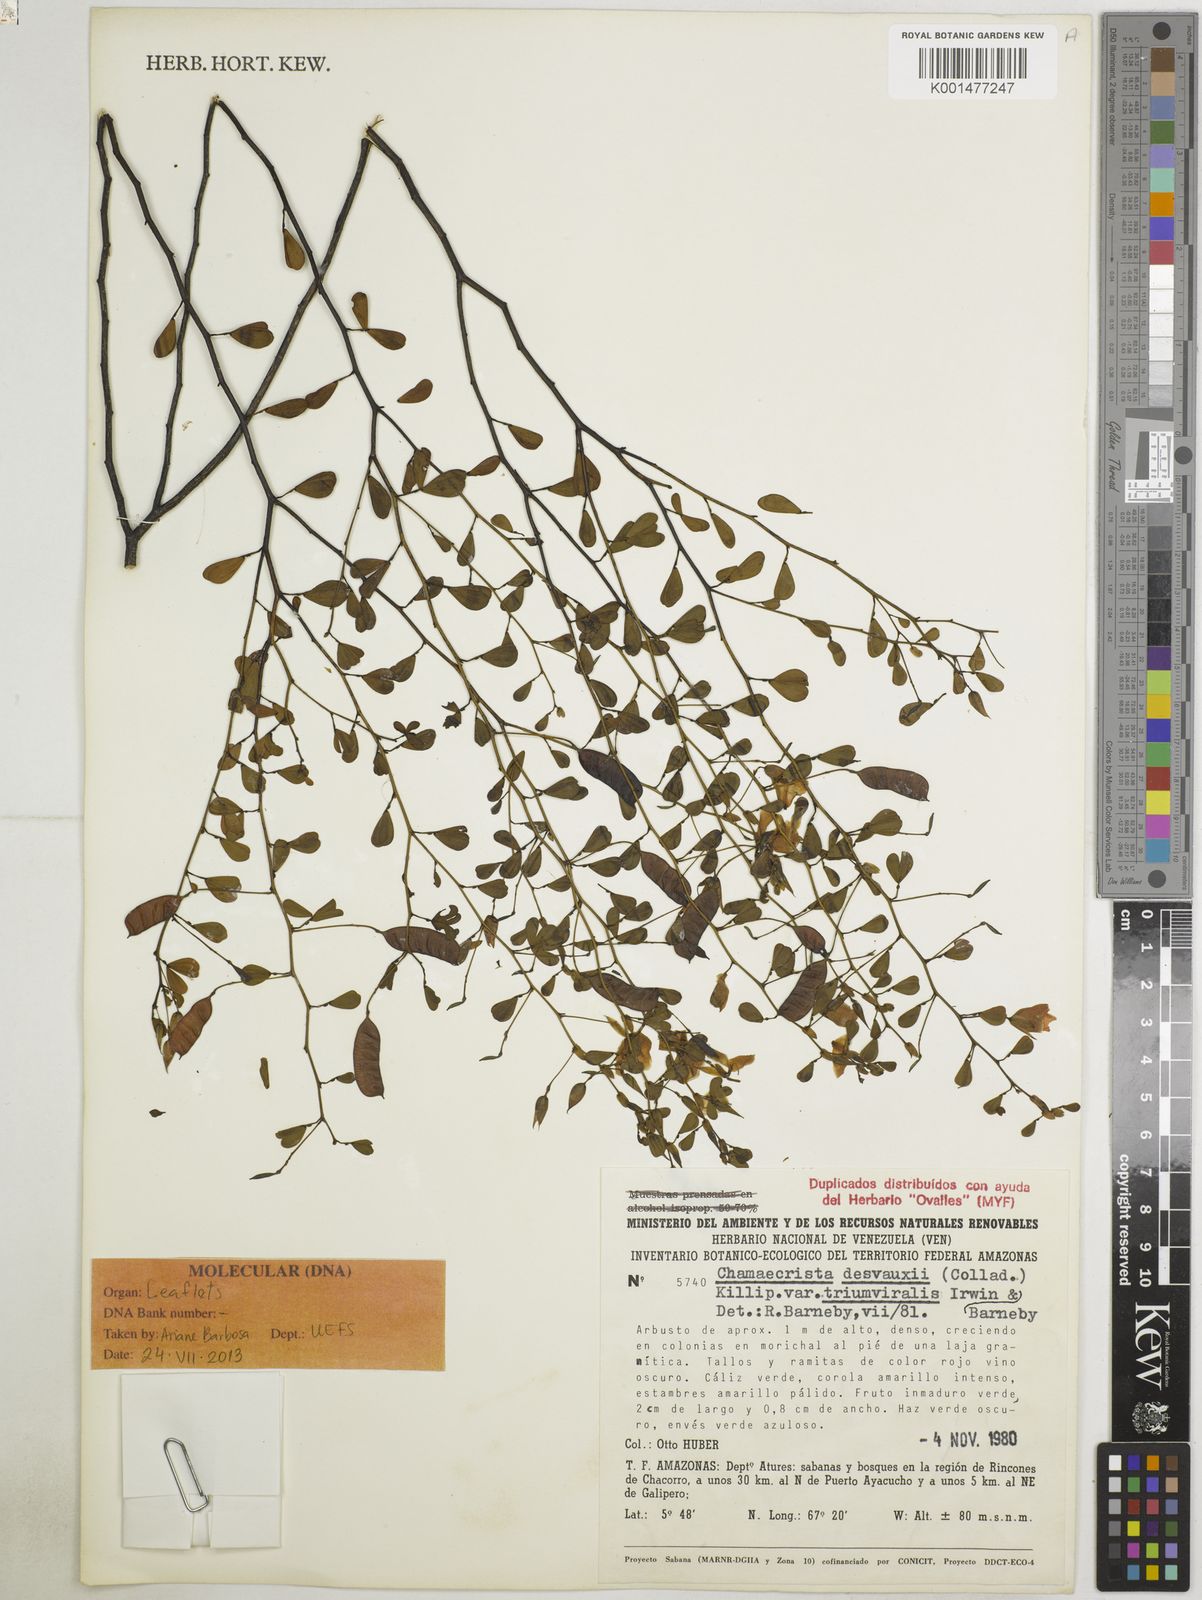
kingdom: Plantae
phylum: Tracheophyta
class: Magnoliopsida
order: Fabales
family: Fabaceae
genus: Chamaecrista
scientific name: Chamaecrista desvauxii
